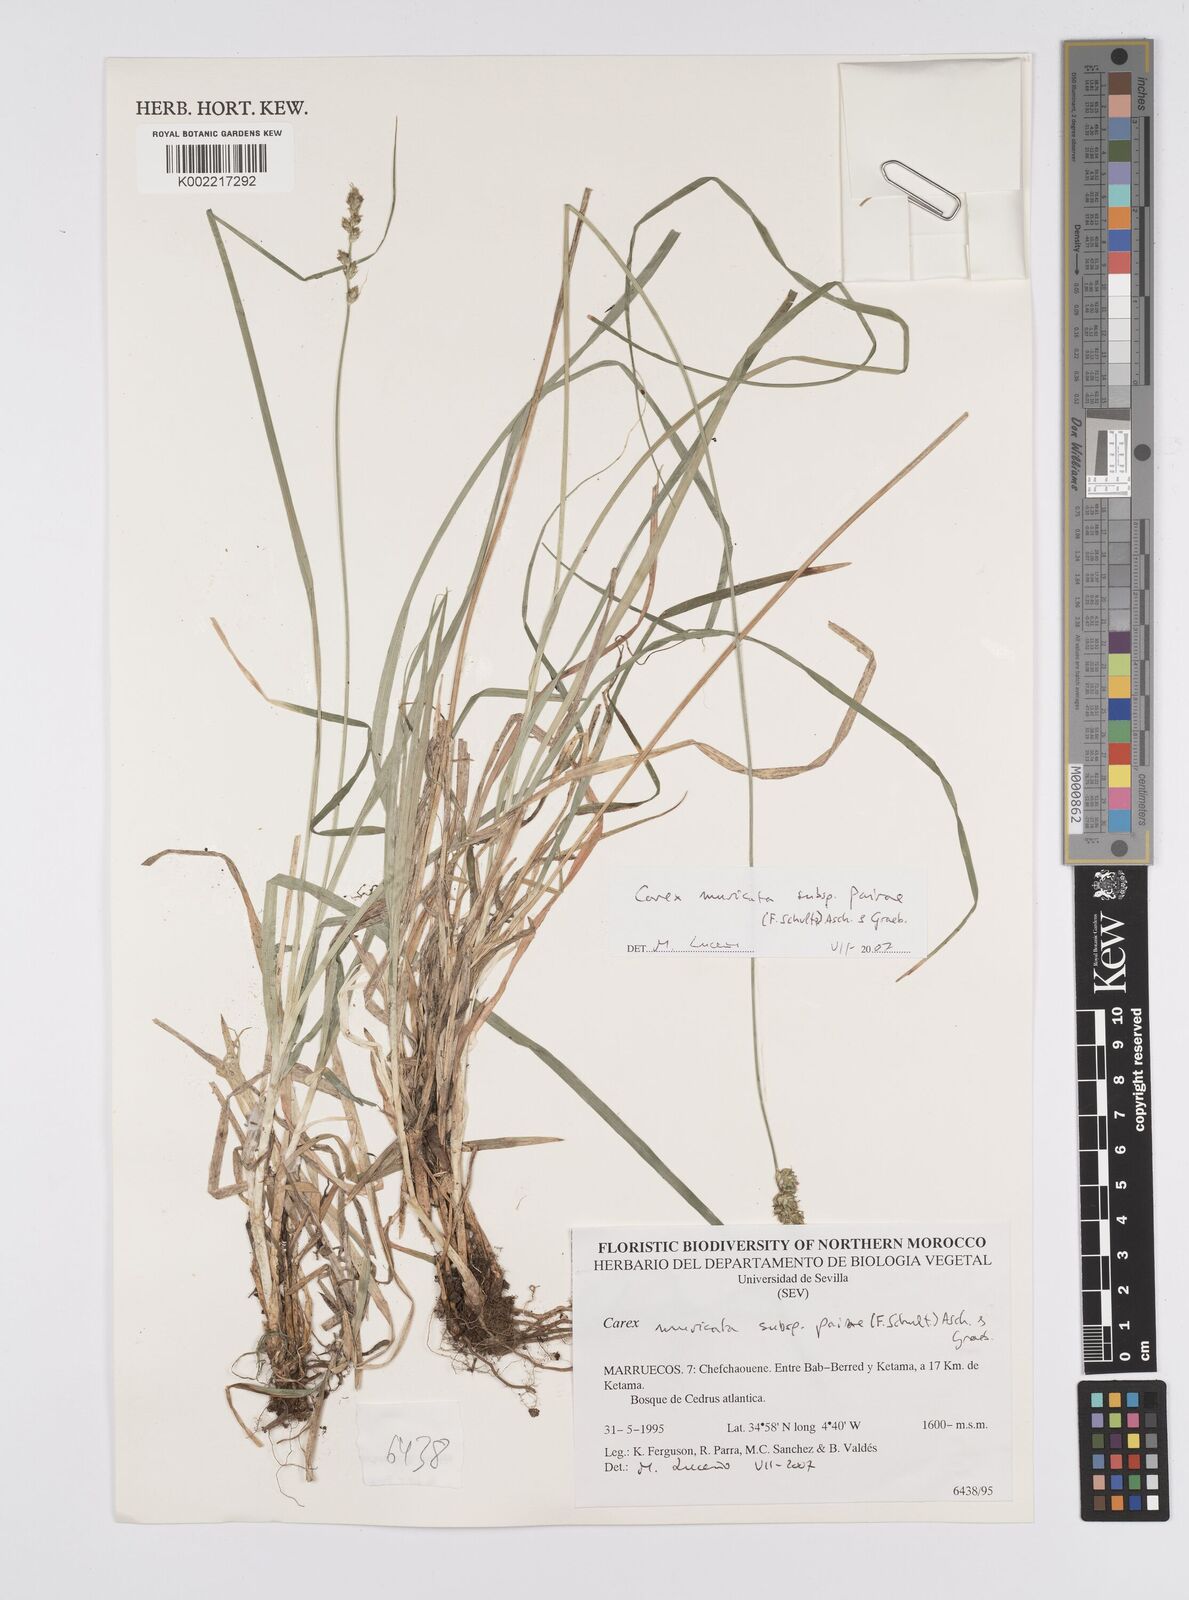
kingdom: Plantae
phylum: Tracheophyta
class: Liliopsida
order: Poales
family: Cyperaceae
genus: Carex
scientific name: Carex muricata
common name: Rough sedge
